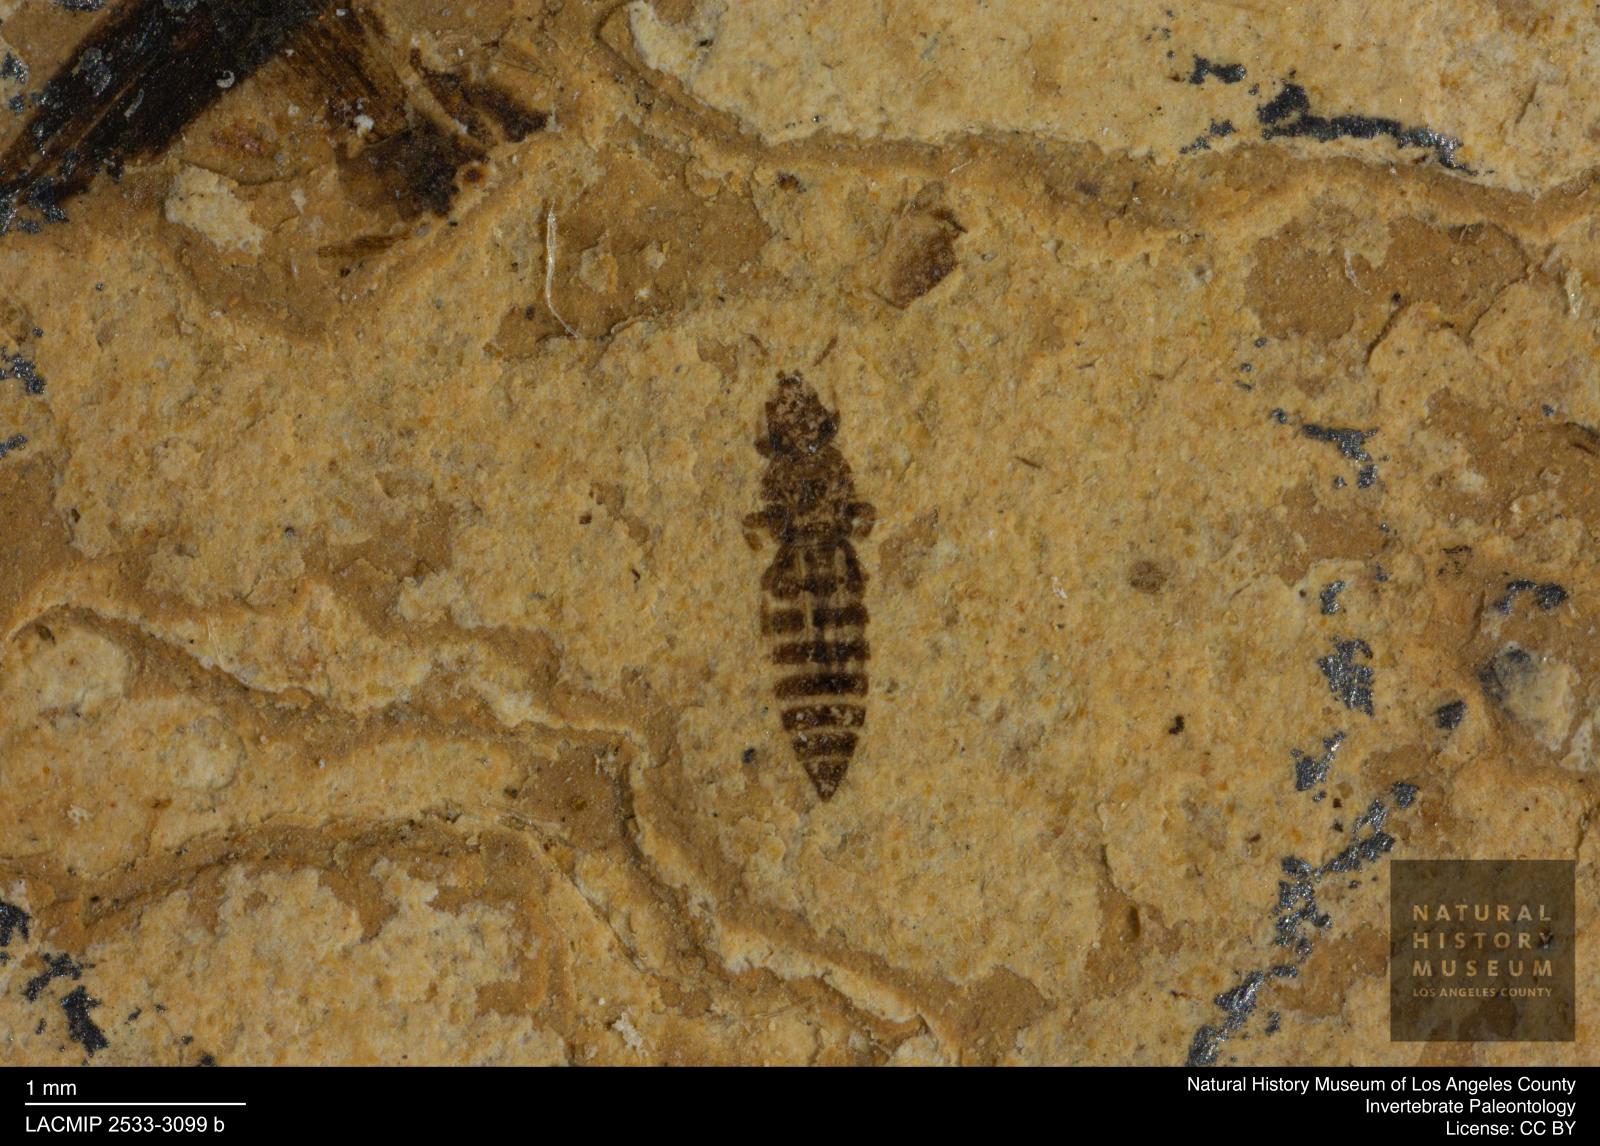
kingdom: Animalia
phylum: Arthropoda
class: Insecta
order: Thysanoptera
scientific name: Thysanoptera
